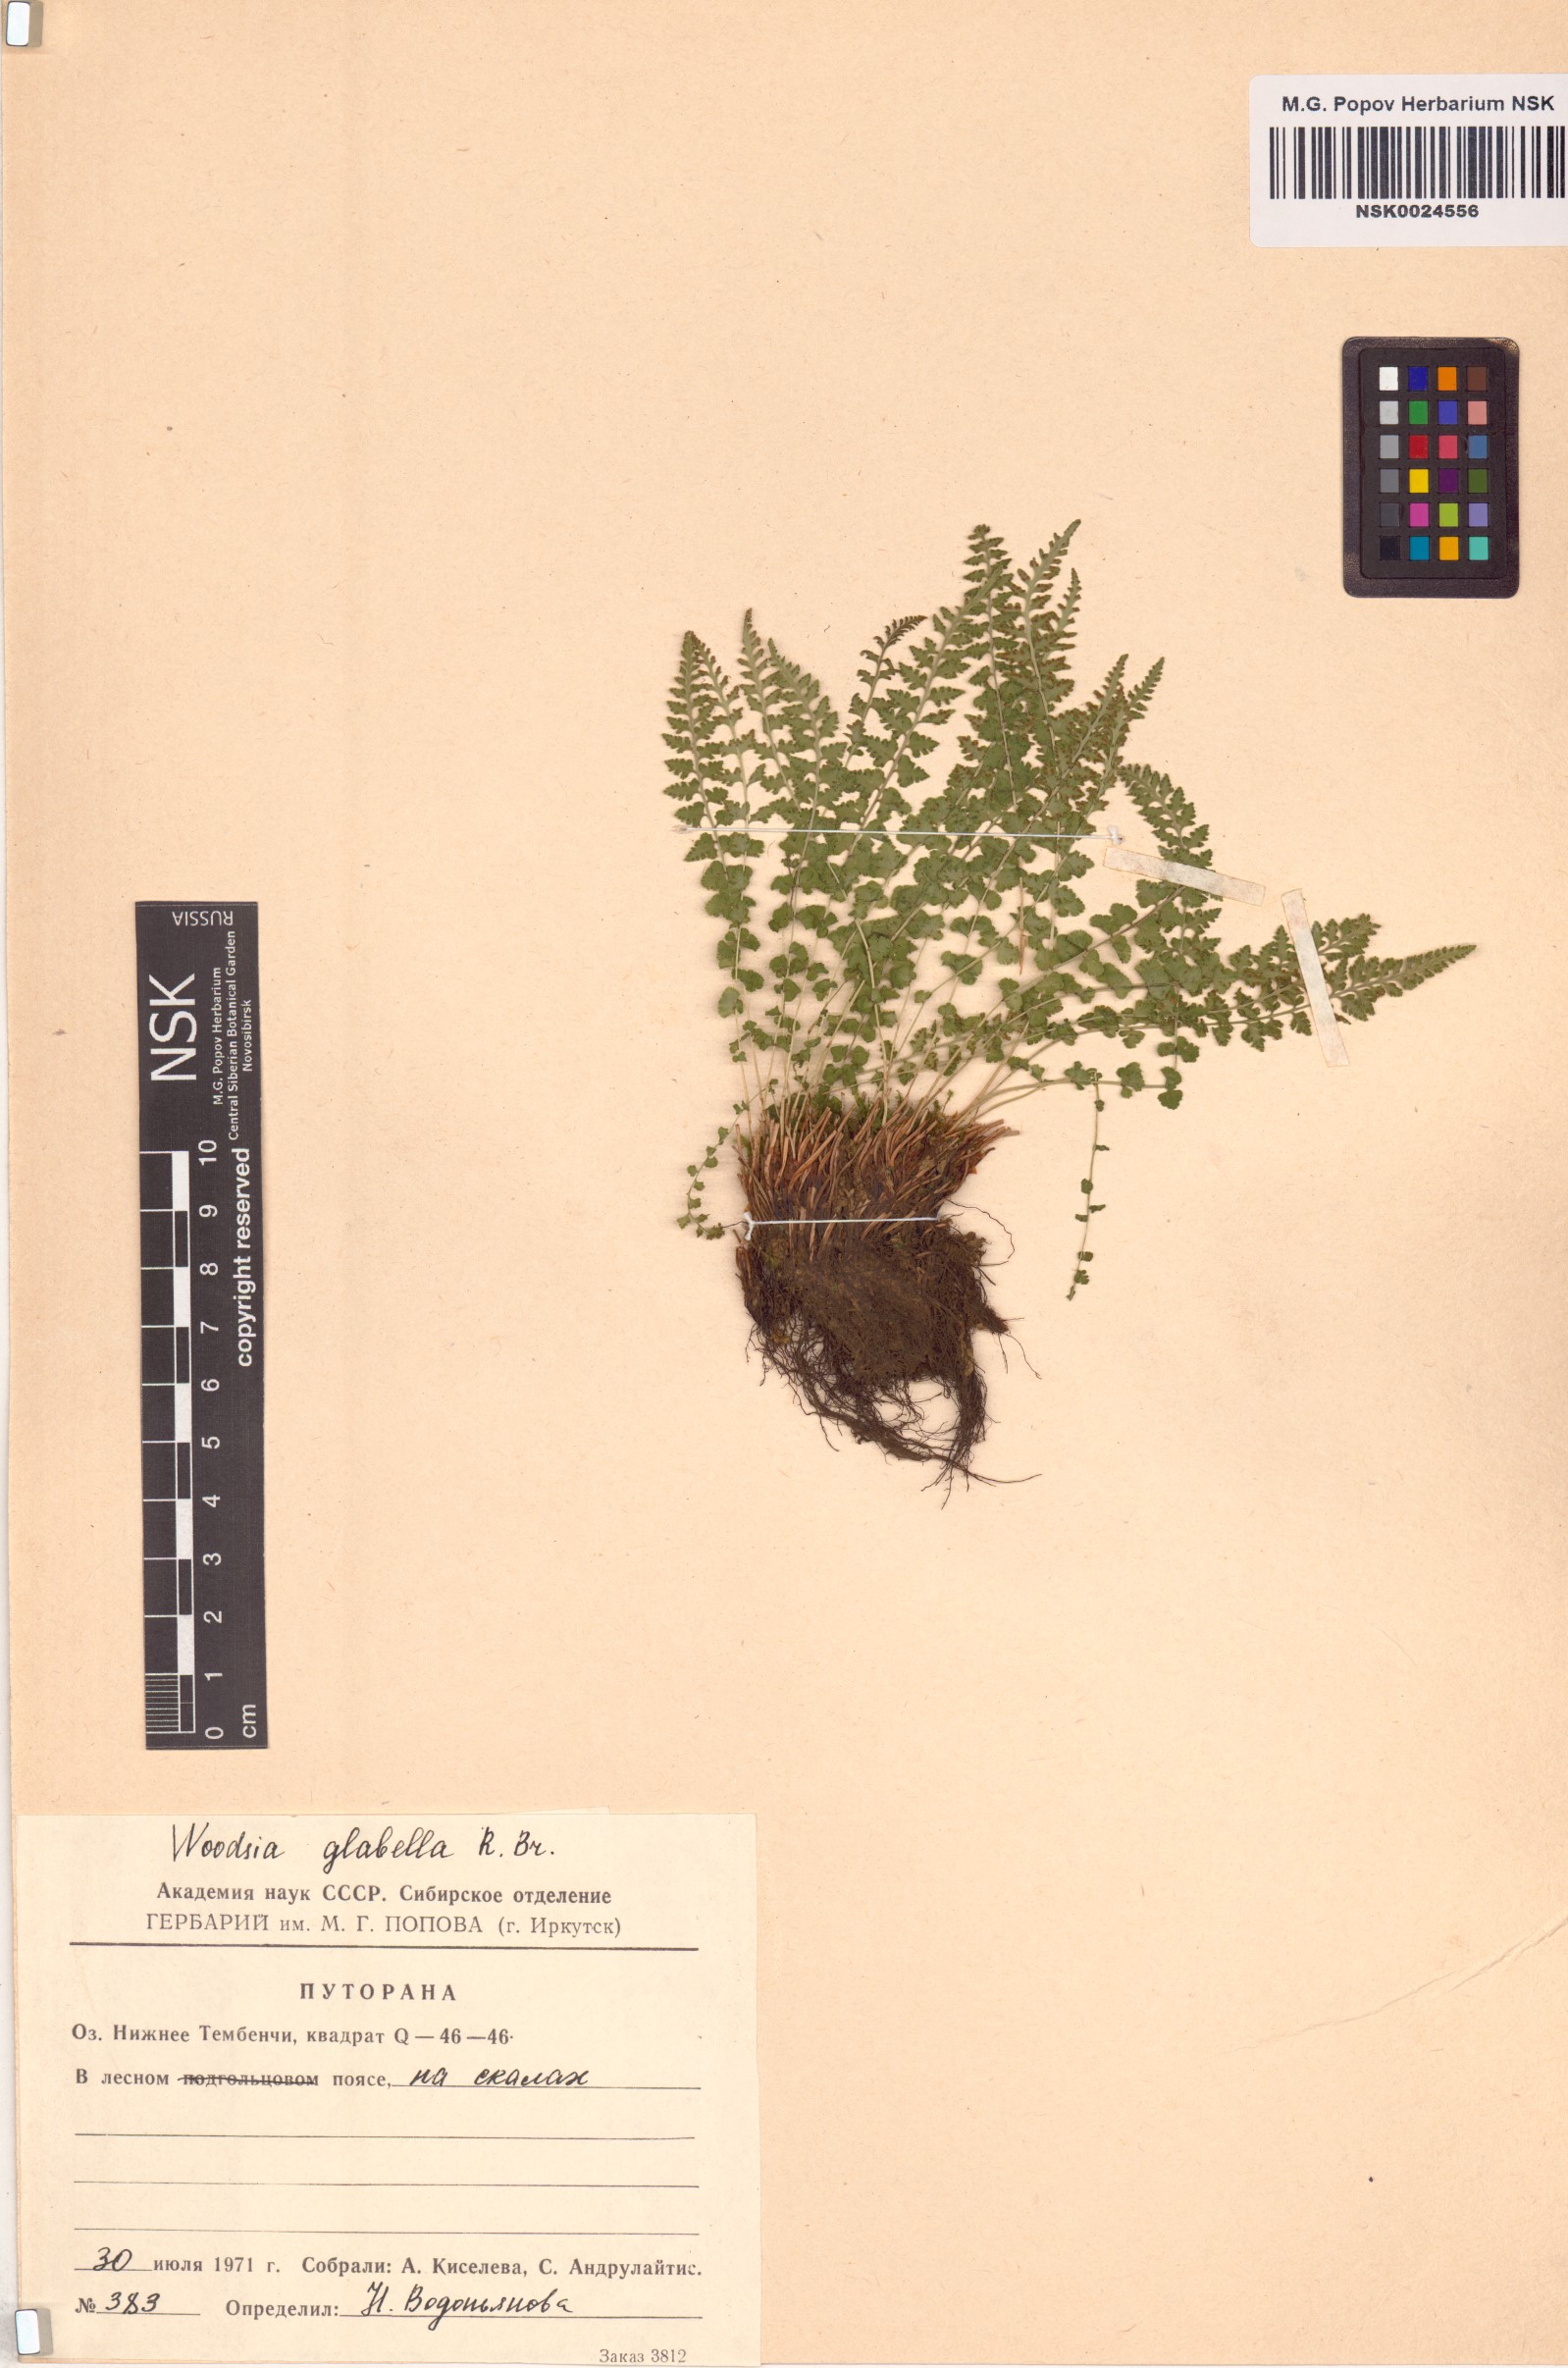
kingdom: Plantae
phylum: Tracheophyta
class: Polypodiopsida
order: Polypodiales
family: Woodsiaceae
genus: Woodsia
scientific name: Woodsia glabella
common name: Smooth woodsia
